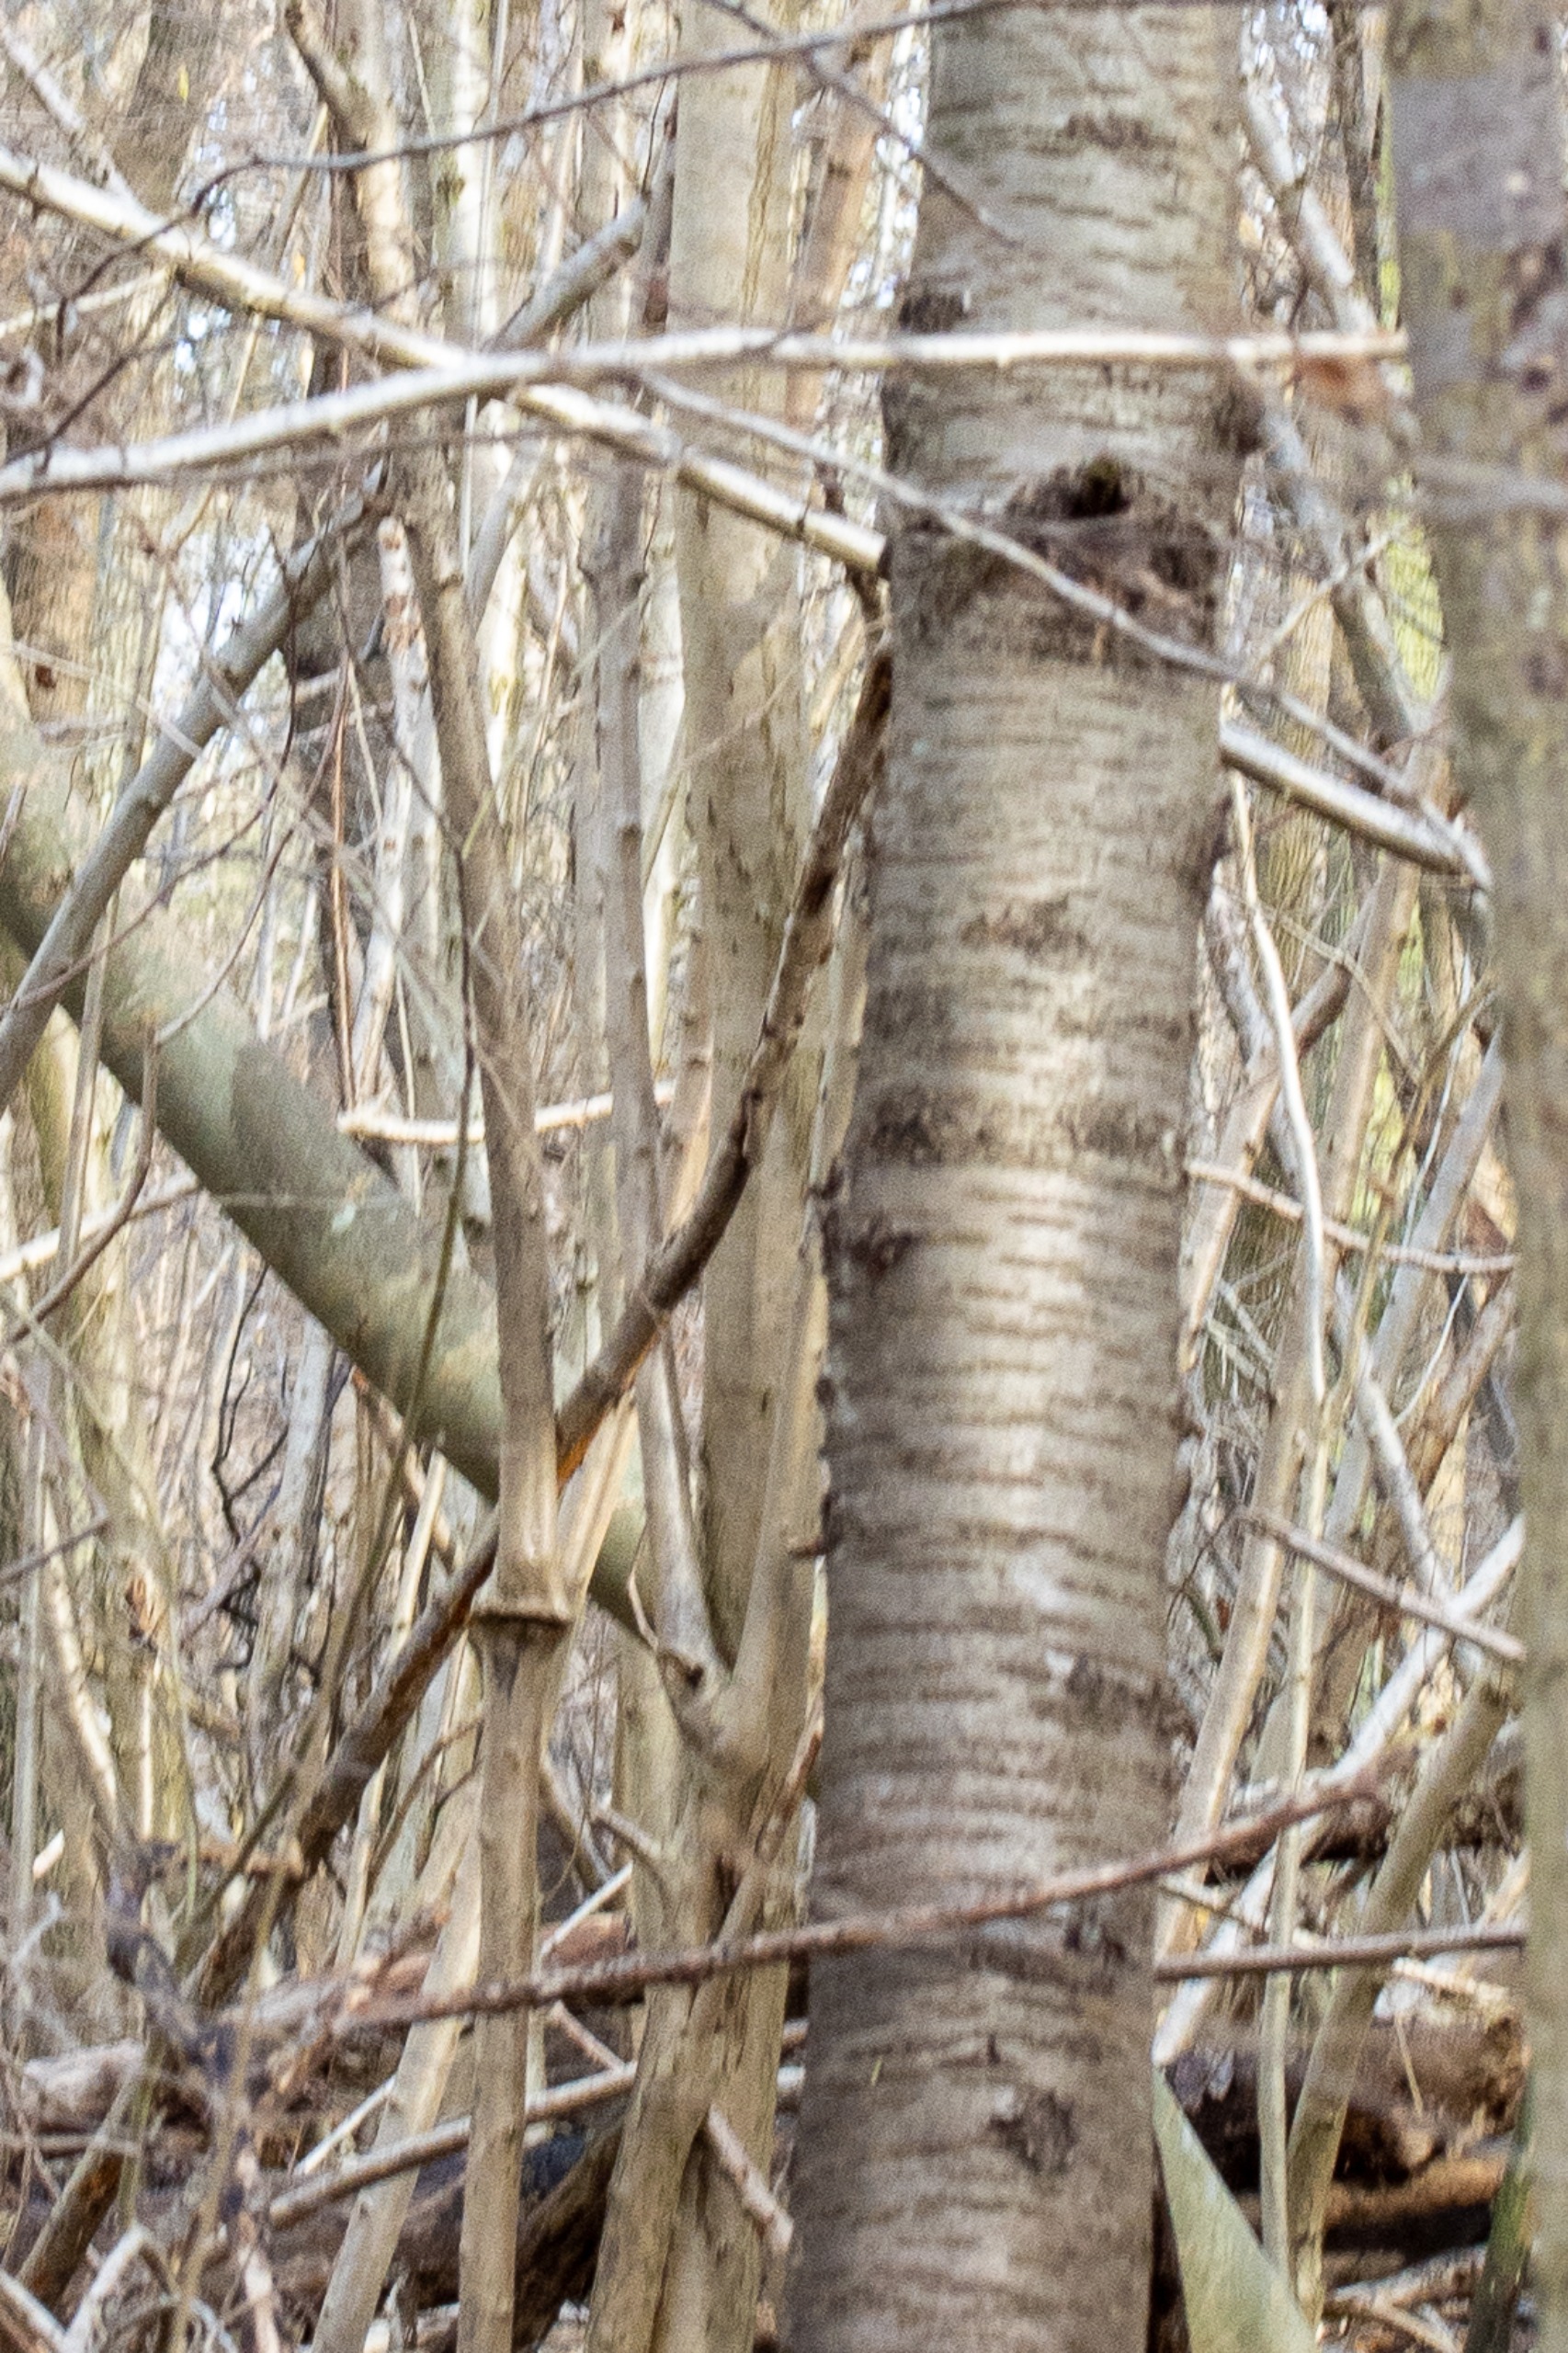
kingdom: Plantae
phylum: Tracheophyta
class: Magnoliopsida
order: Rosales
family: Rosaceae
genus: Prunus
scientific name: Prunus avium
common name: Fugle-kirsebær
